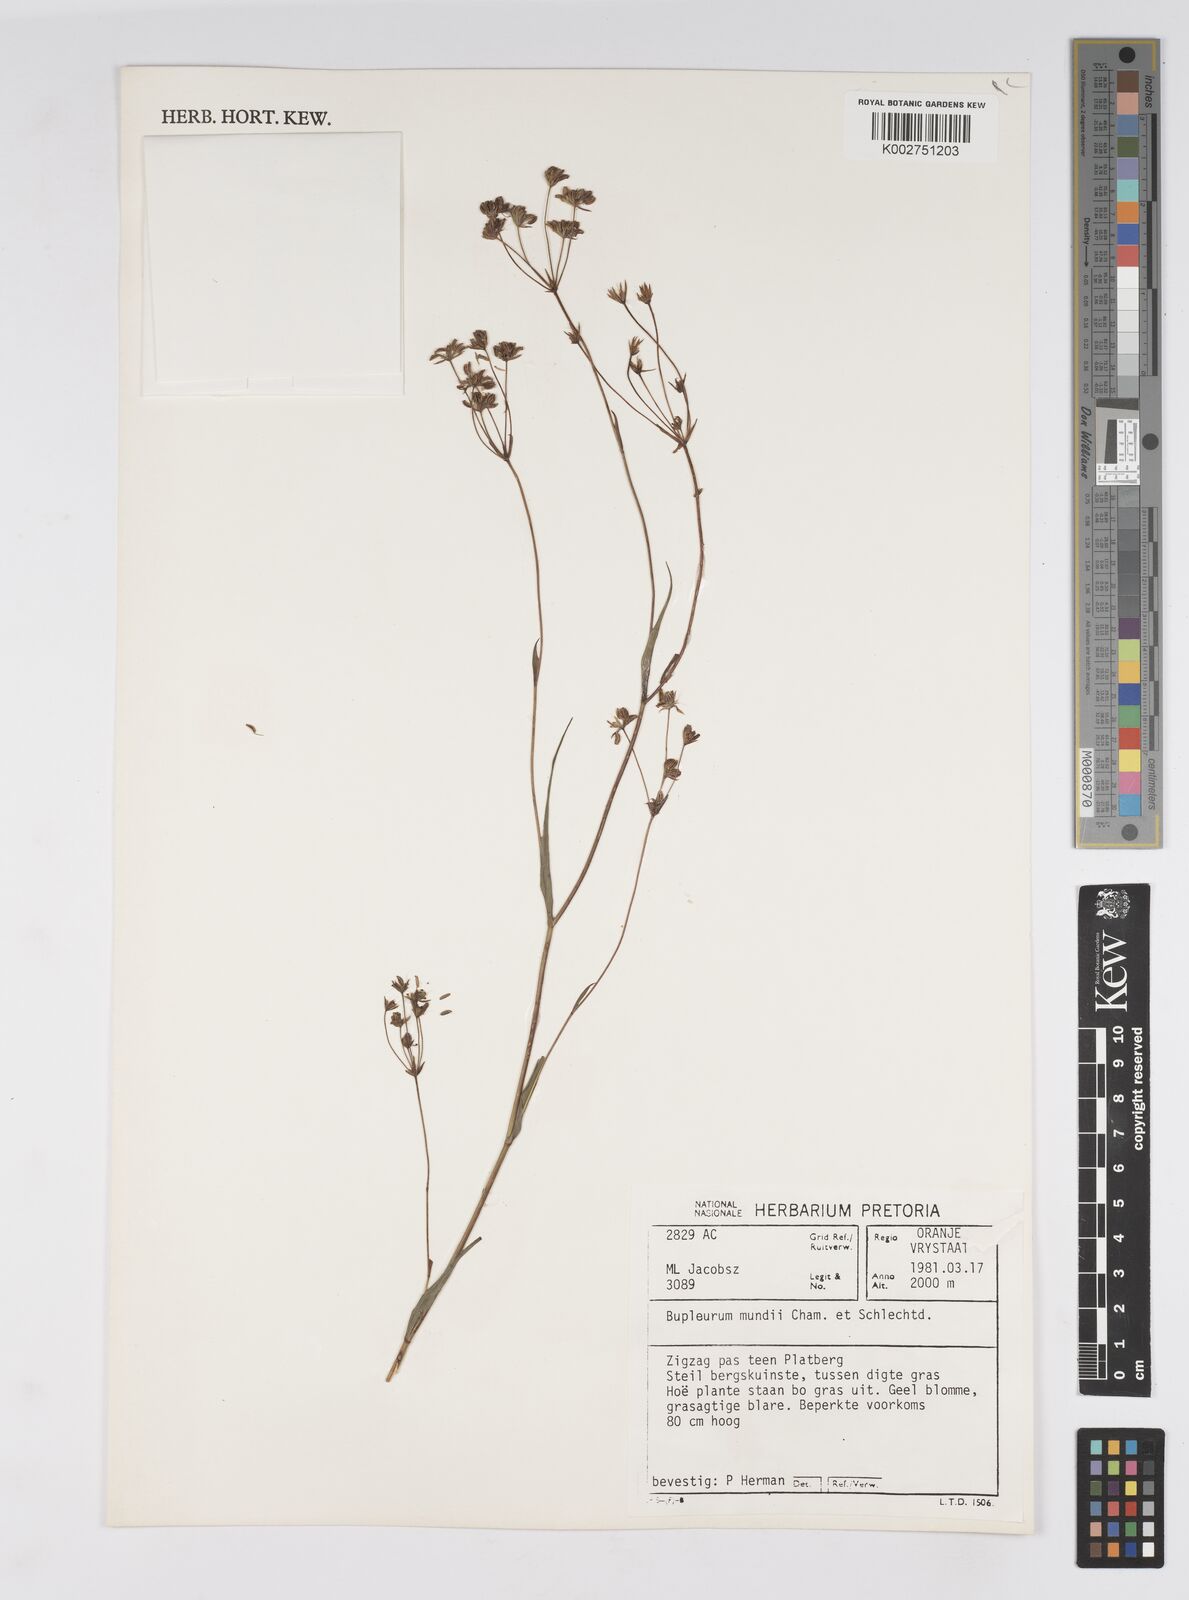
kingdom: Plantae
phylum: Tracheophyta
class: Magnoliopsida
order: Apiales
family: Apiaceae
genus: Bupleurum
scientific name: Bupleurum mundii
